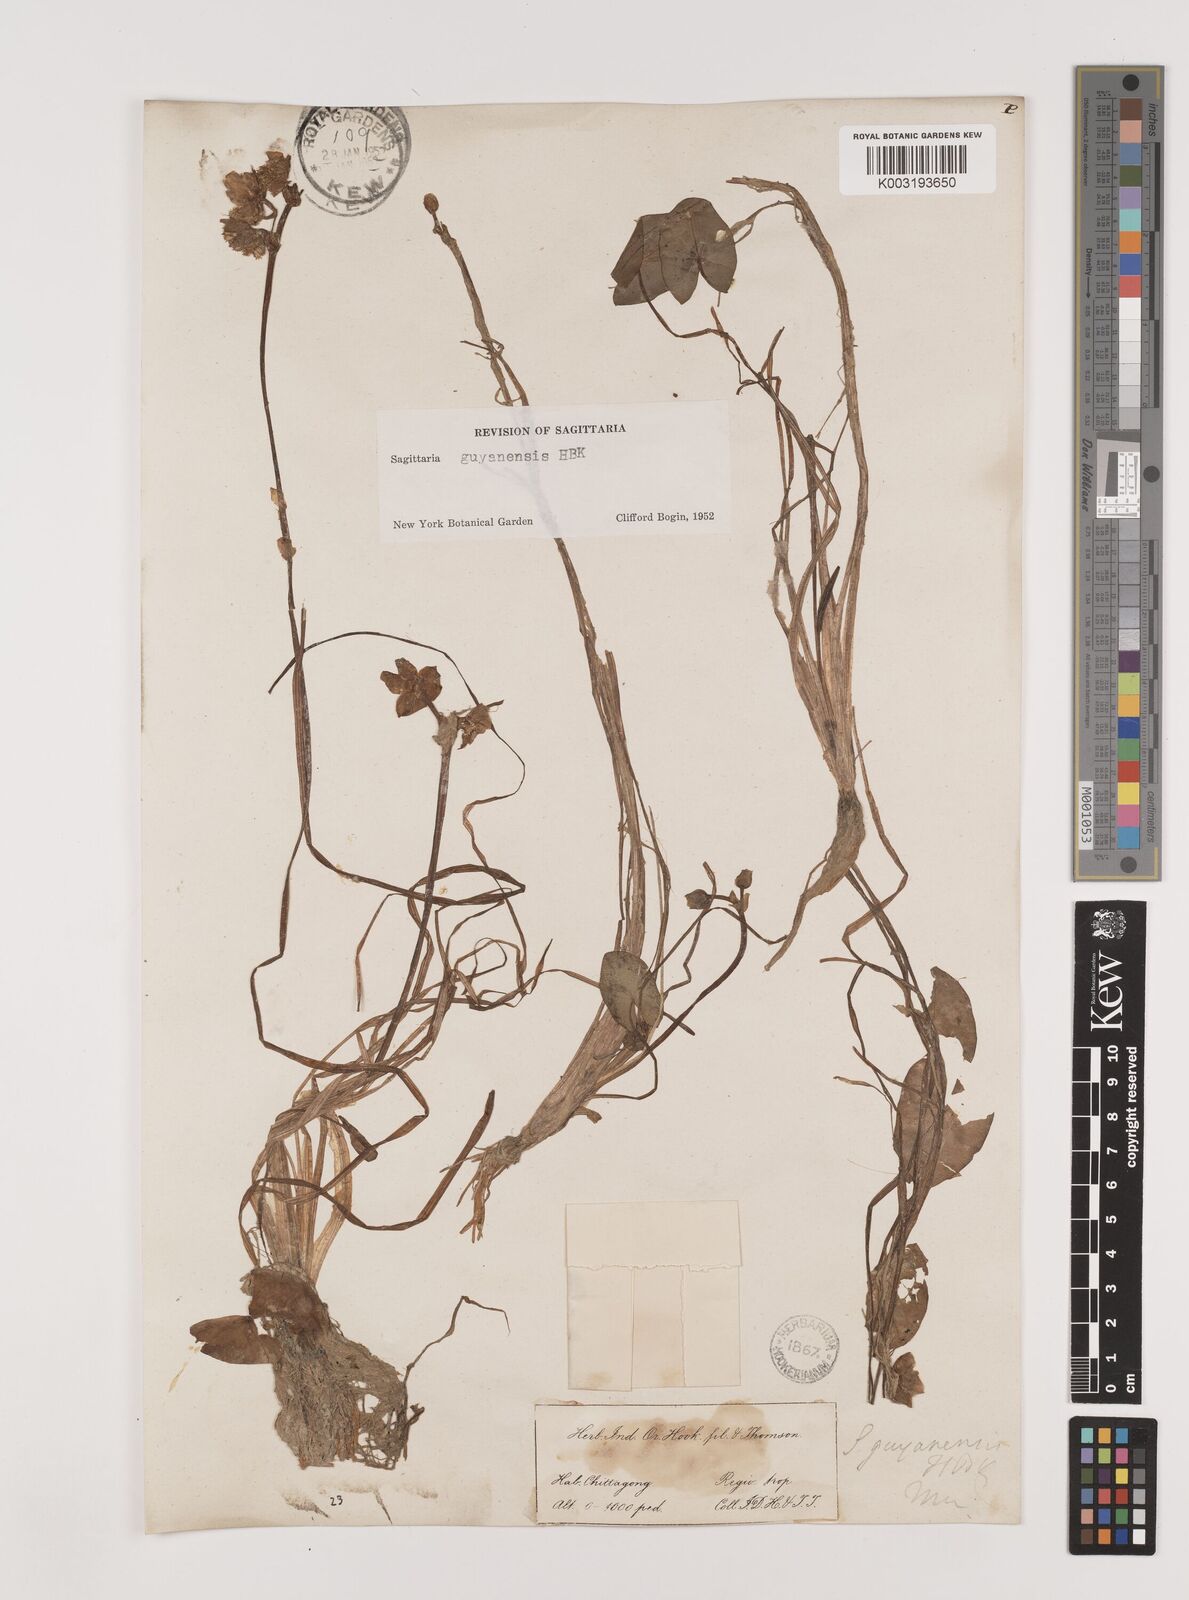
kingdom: Plantae
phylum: Tracheophyta
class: Liliopsida
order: Alismatales
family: Alismataceae
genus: Sagittaria
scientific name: Sagittaria guayanensis
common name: Guyanese arrowhead
